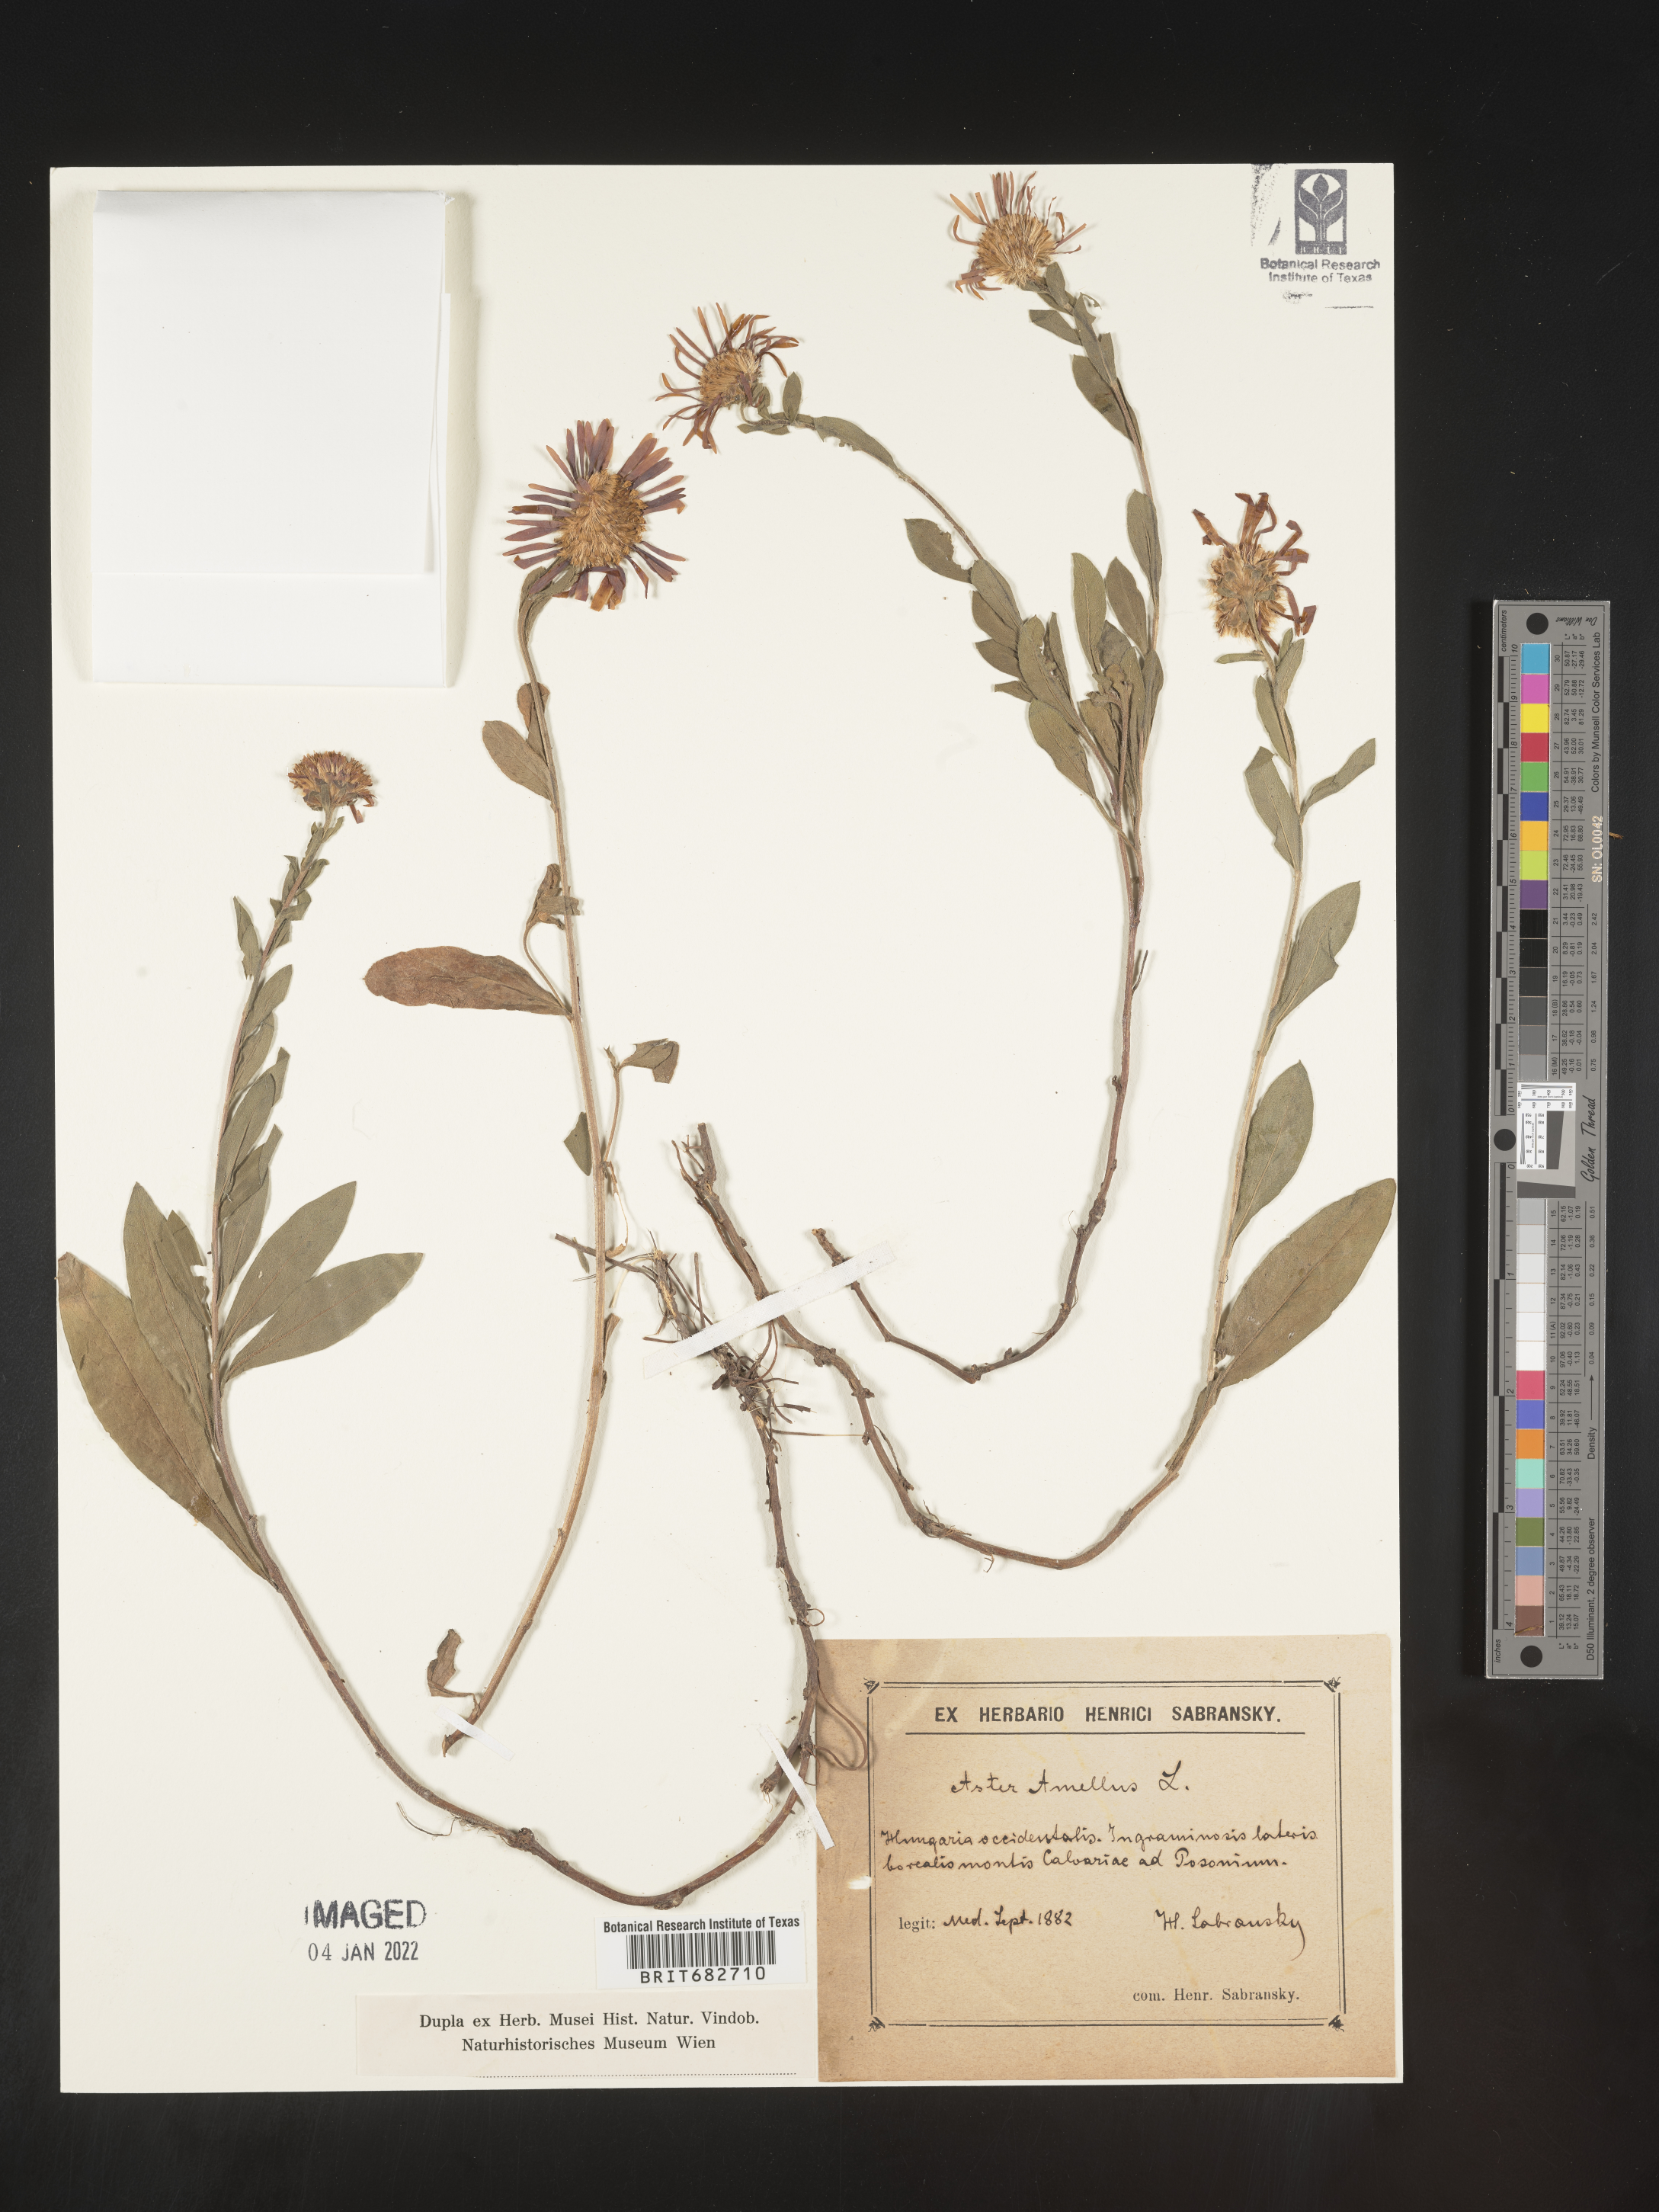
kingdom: Plantae
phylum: Tracheophyta
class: Magnoliopsida
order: Asterales
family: Asteraceae
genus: Aster
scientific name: Aster
